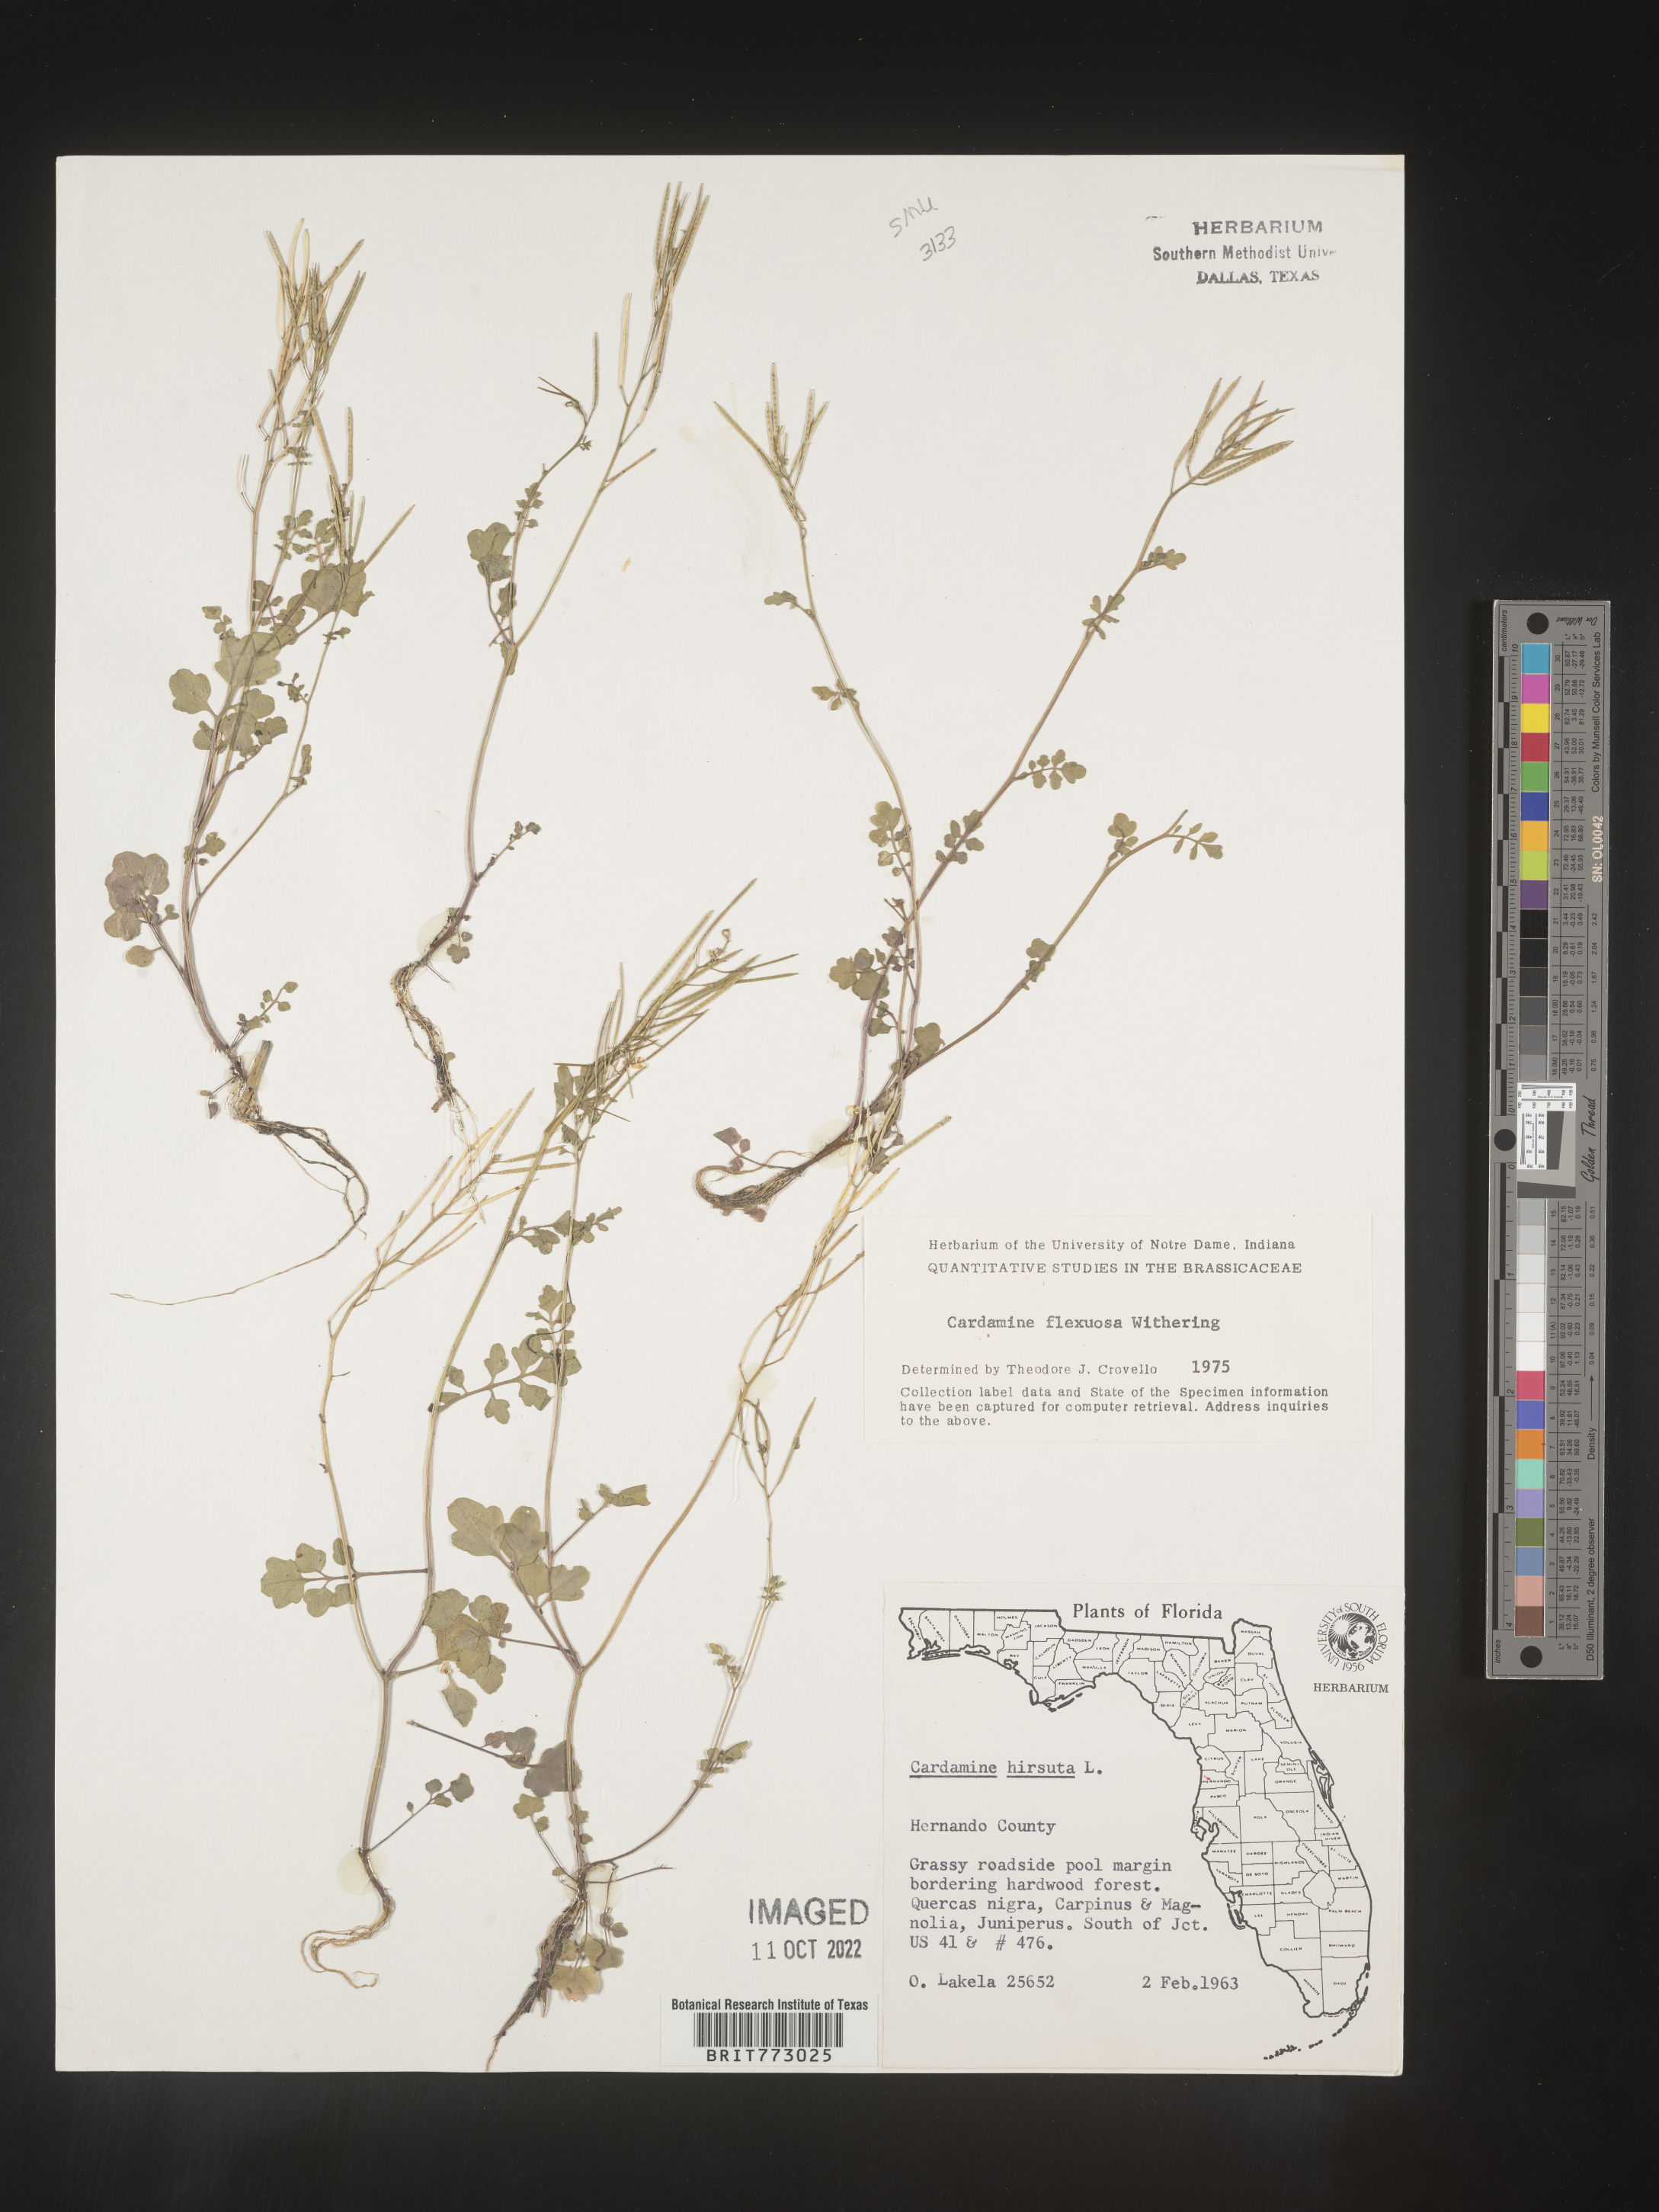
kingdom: Plantae
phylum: Tracheophyta
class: Magnoliopsida
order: Brassicales
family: Brassicaceae
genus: Cardamine
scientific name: Cardamine
